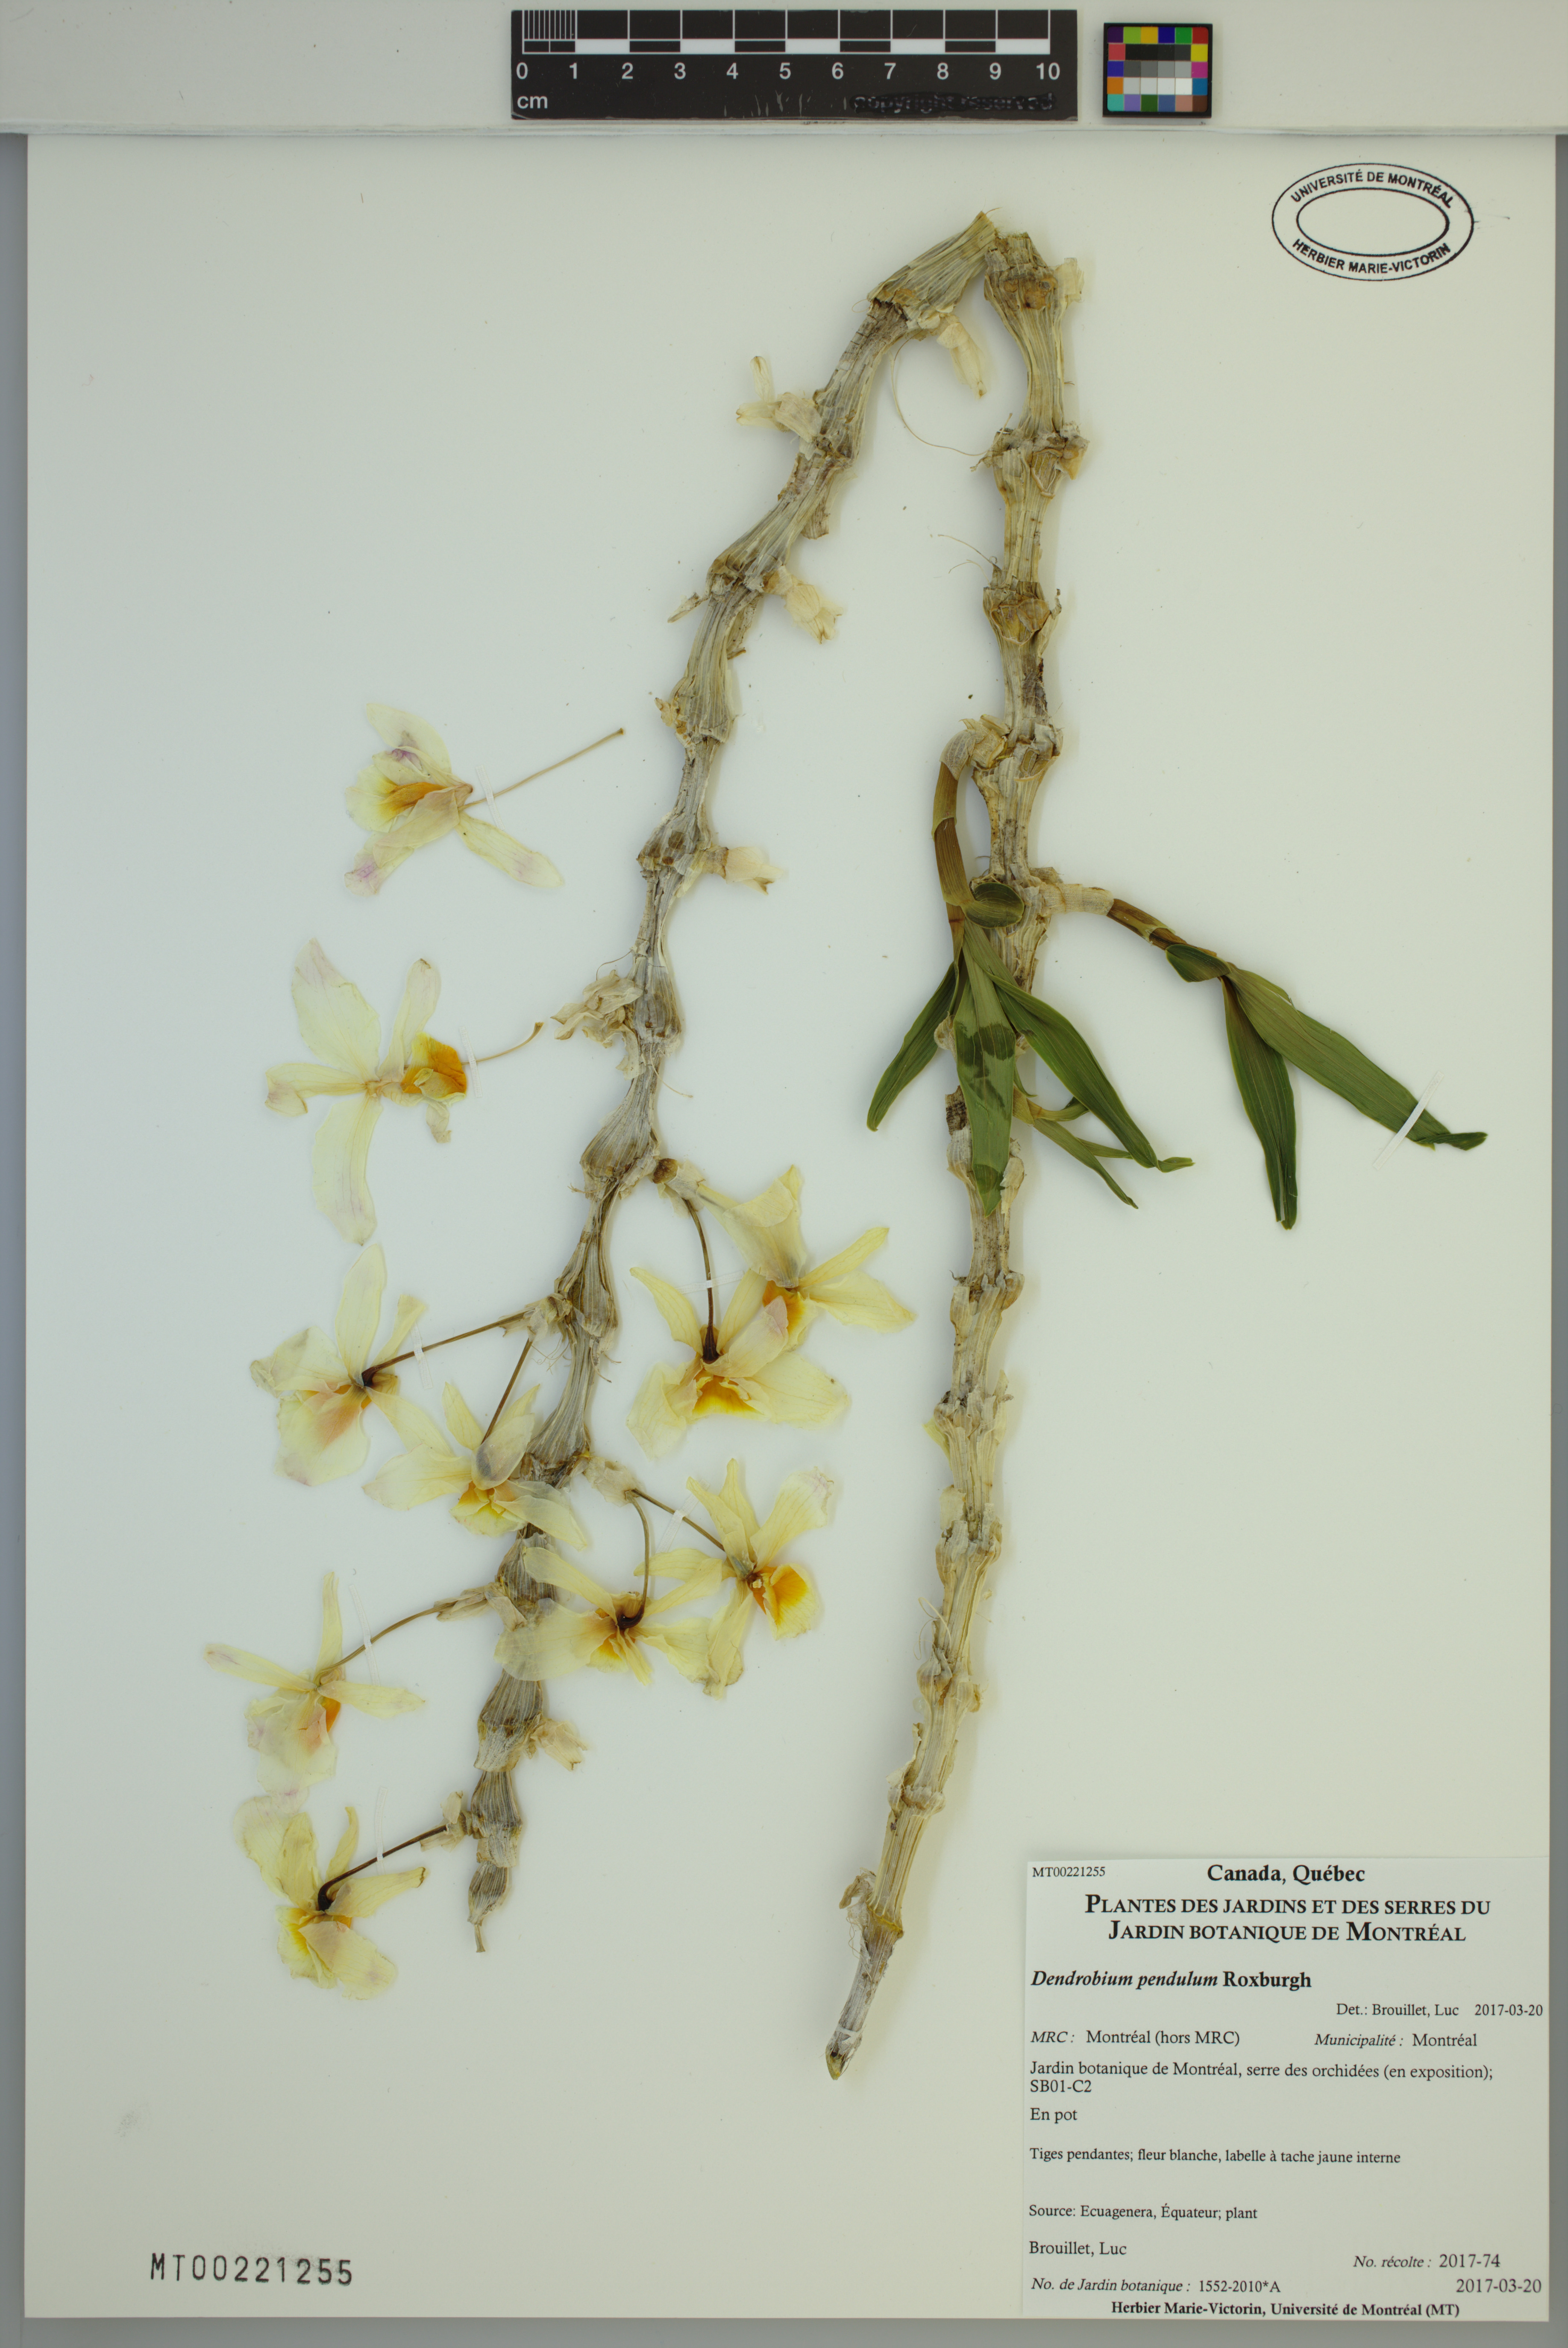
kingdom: Plantae
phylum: Tracheophyta
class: Liliopsida
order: Asparagales
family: Orchidaceae
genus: Dendrobium
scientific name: Dendrobium pendulum
